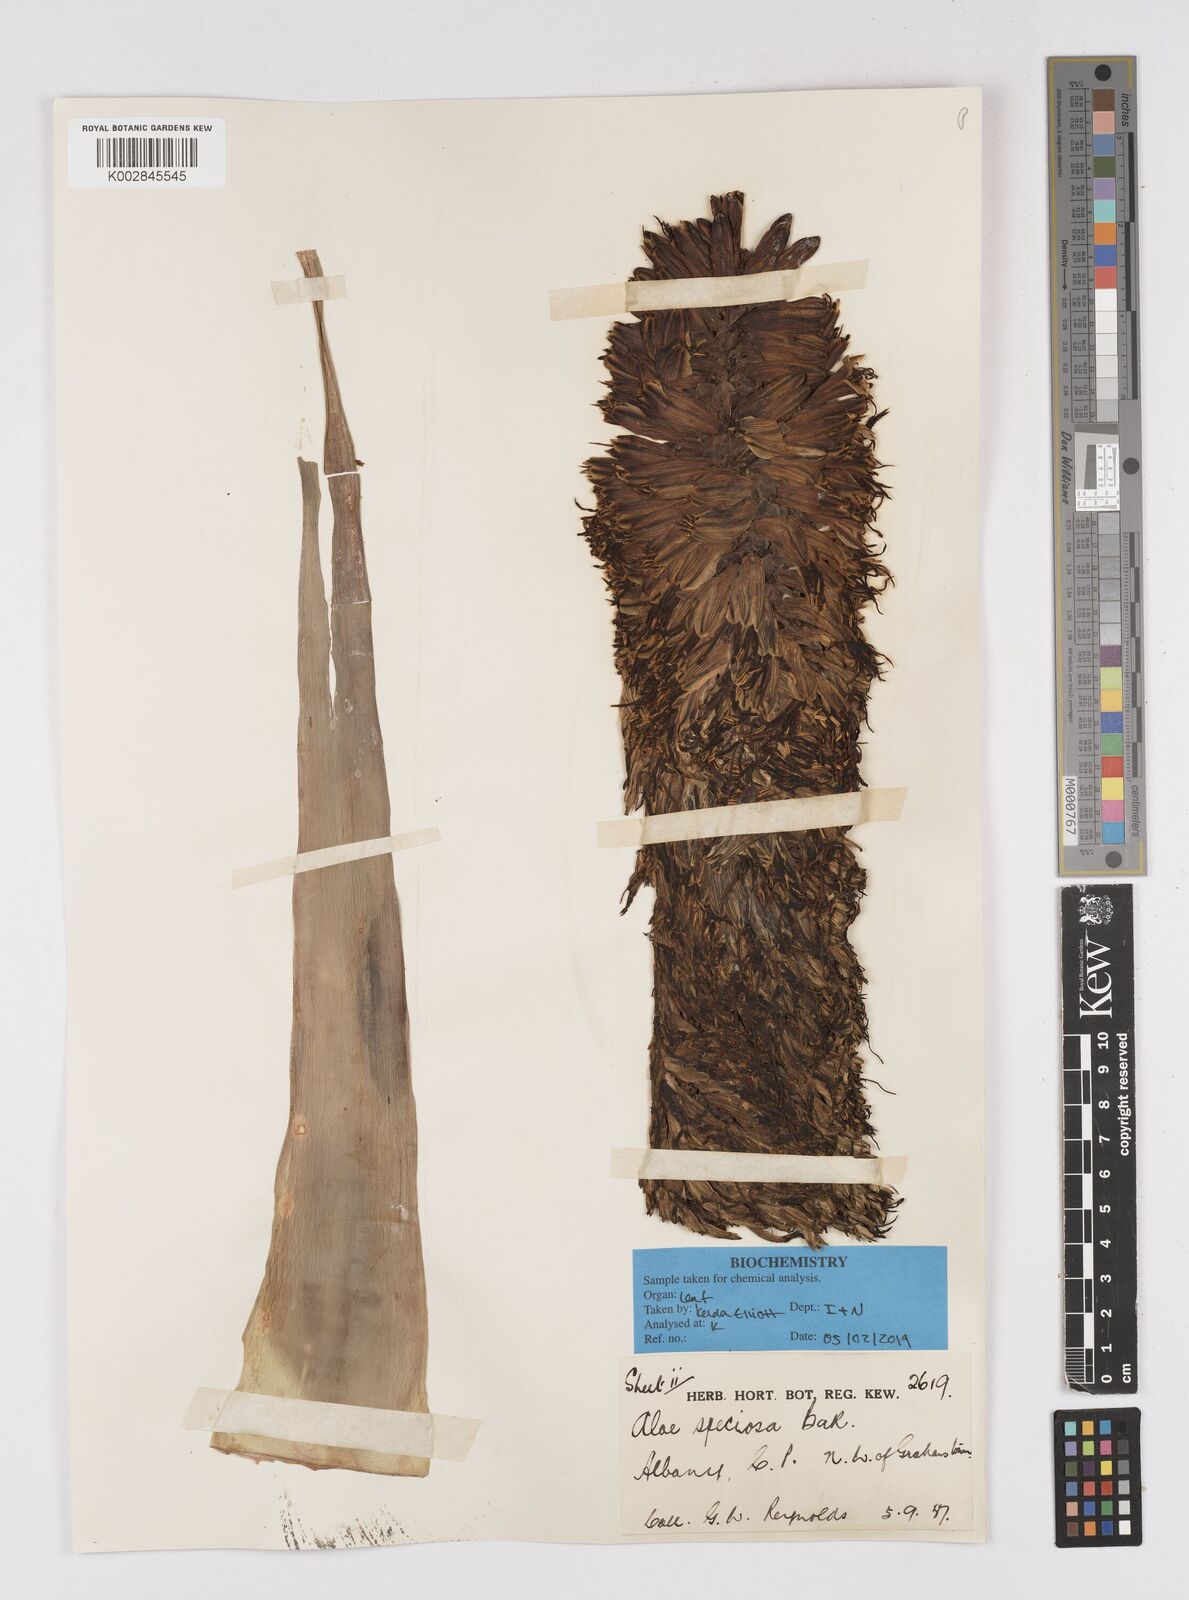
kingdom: Plantae
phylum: Tracheophyta
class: Liliopsida
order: Asparagales
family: Asphodelaceae
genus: Aloe
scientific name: Aloe speciosa
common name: Beautiful aloe
